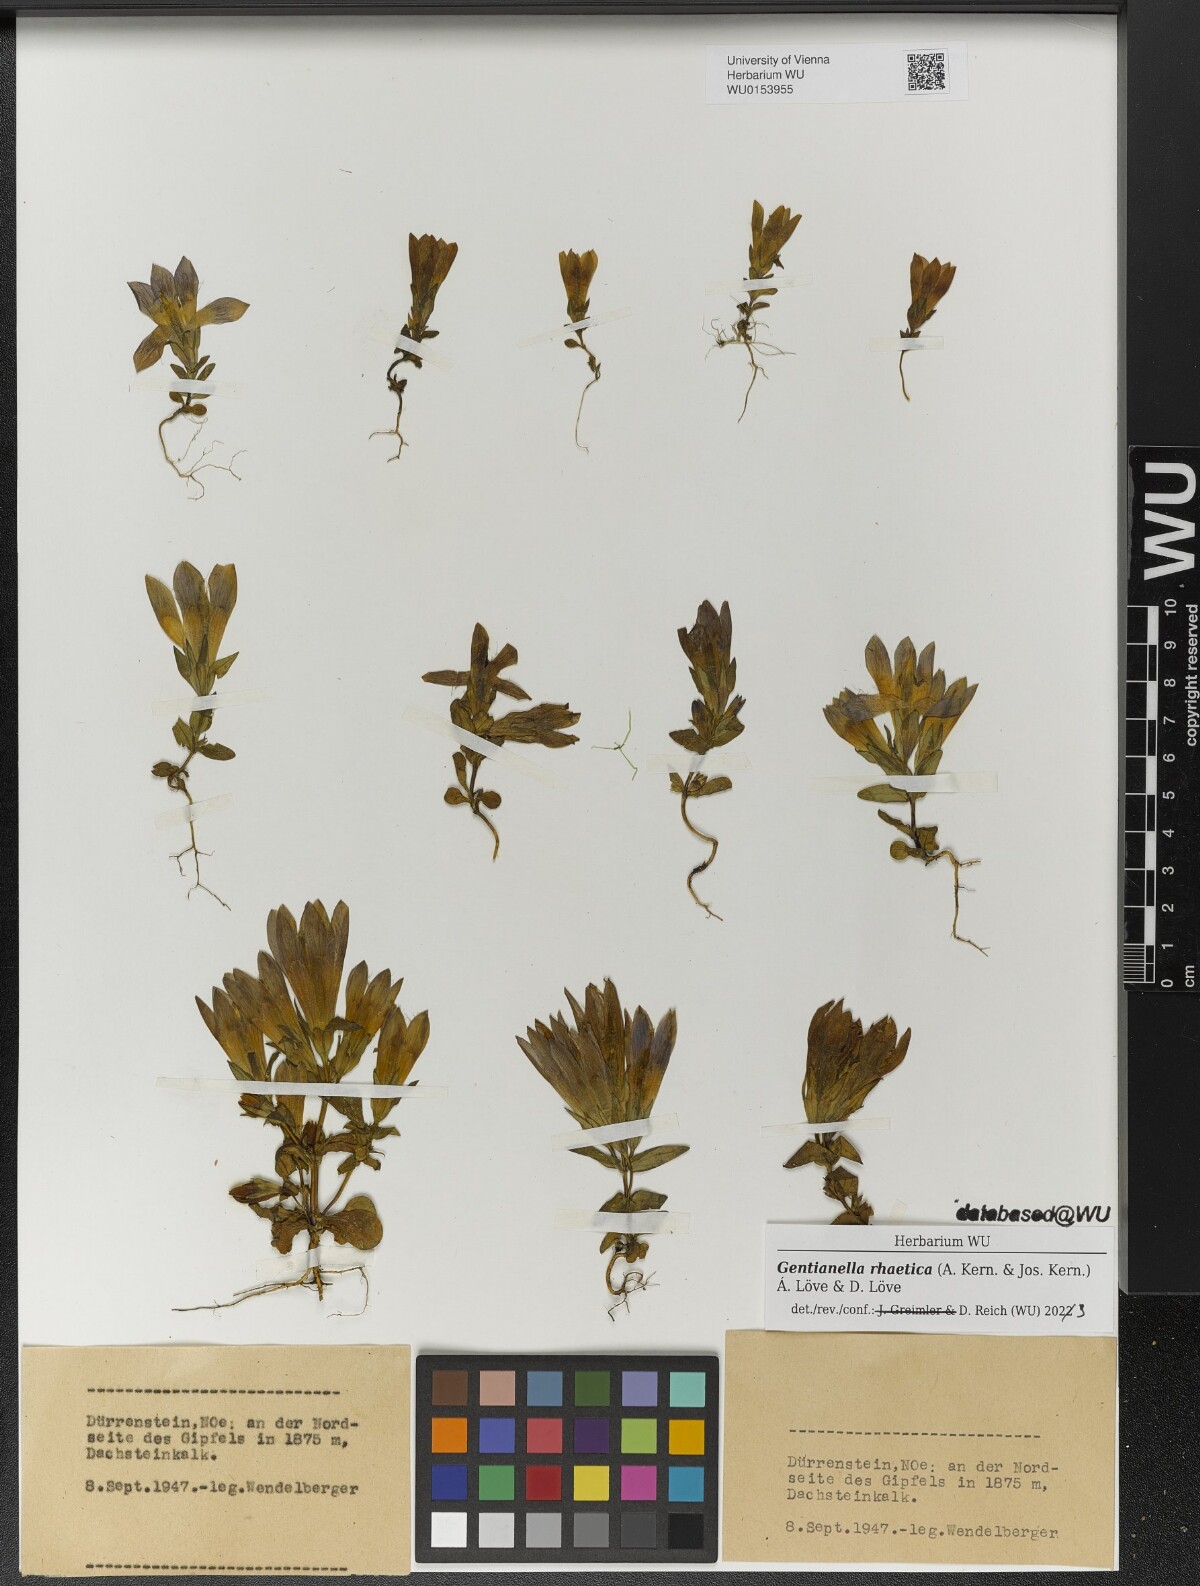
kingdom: Plantae
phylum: Tracheophyta
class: Magnoliopsida
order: Gentianales
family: Gentianaceae
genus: Gentianella
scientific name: Gentianella rhaetica
